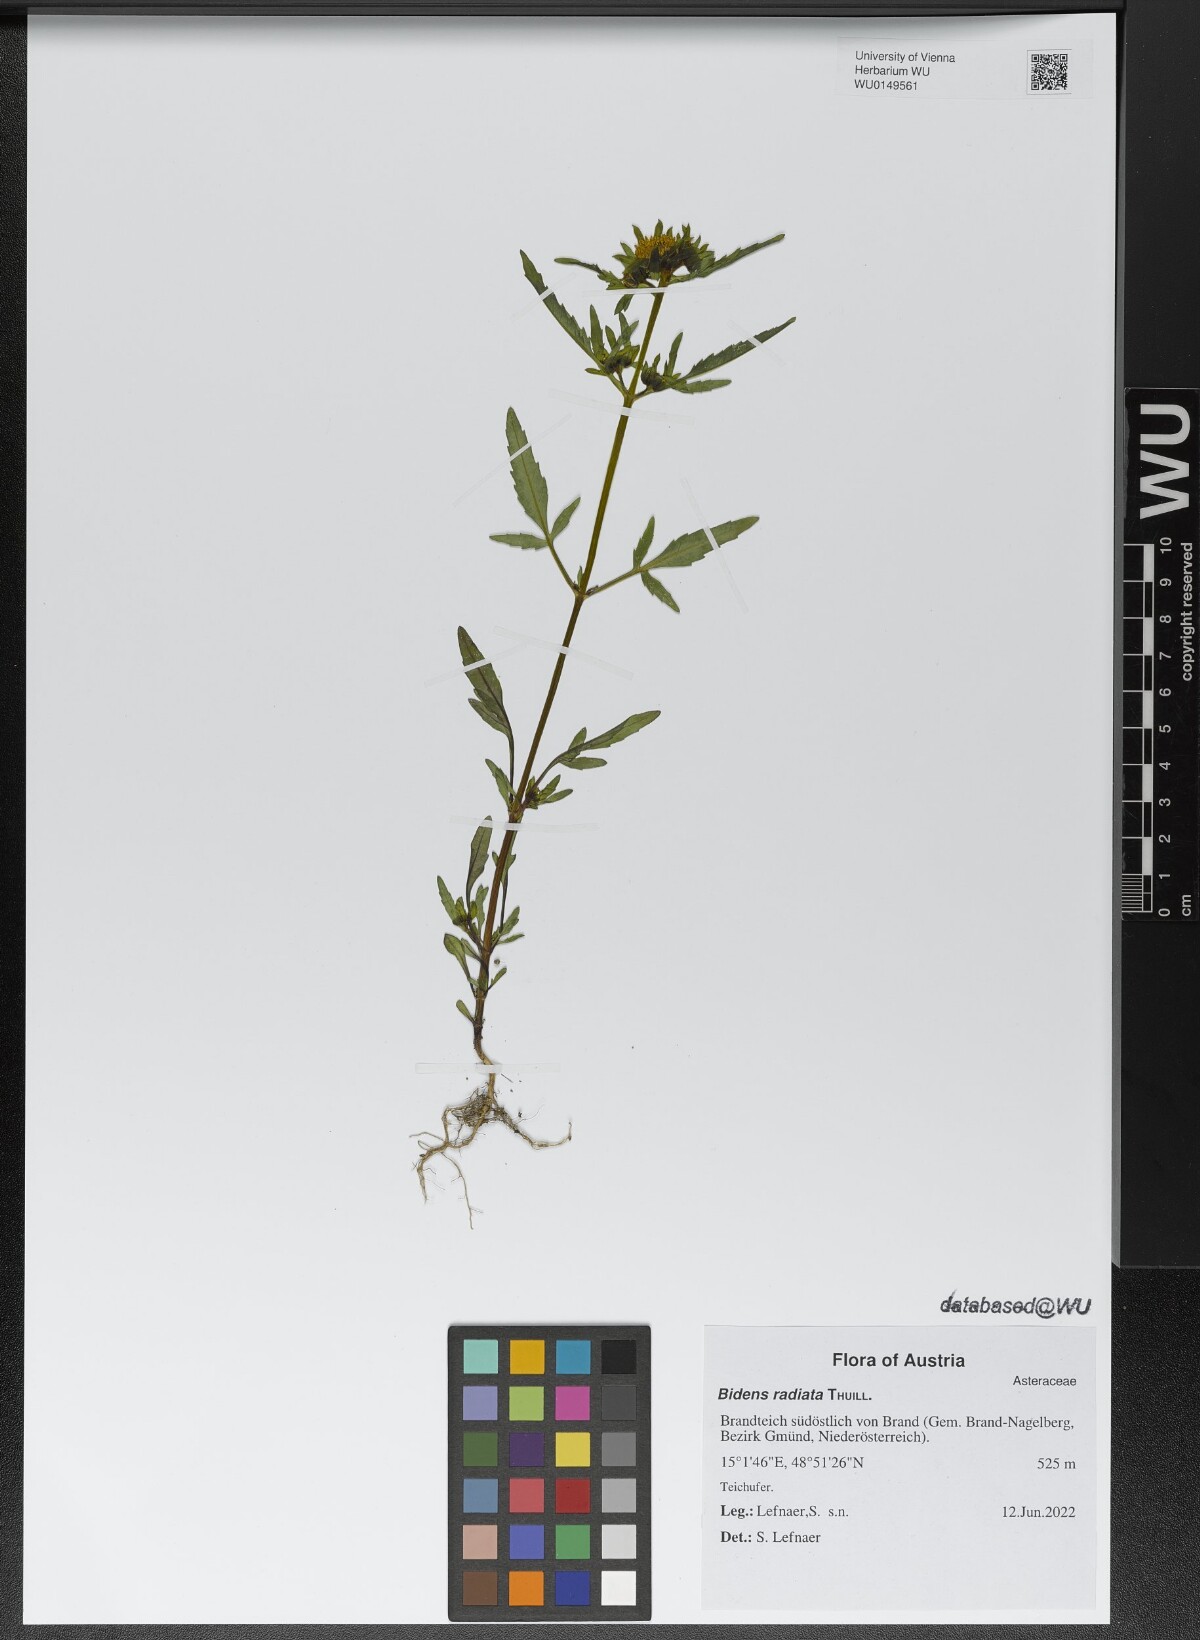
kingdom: Plantae
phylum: Tracheophyta
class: Magnoliopsida
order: Asterales
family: Asteraceae
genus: Bidens
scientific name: Bidens radiata
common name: Radiating bur-marigold
